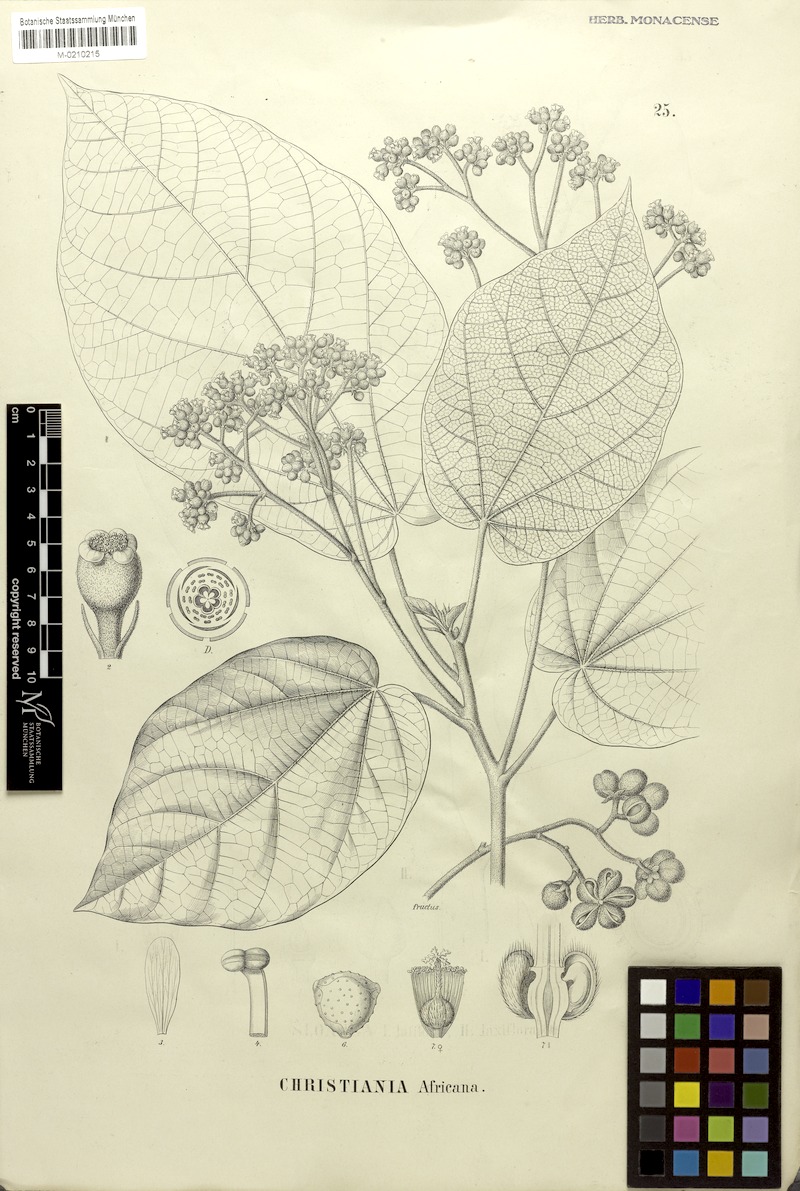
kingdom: Plantae
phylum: Tracheophyta
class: Magnoliopsida
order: Malvales
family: Malvaceae
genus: Christiana
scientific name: Christiana africana
